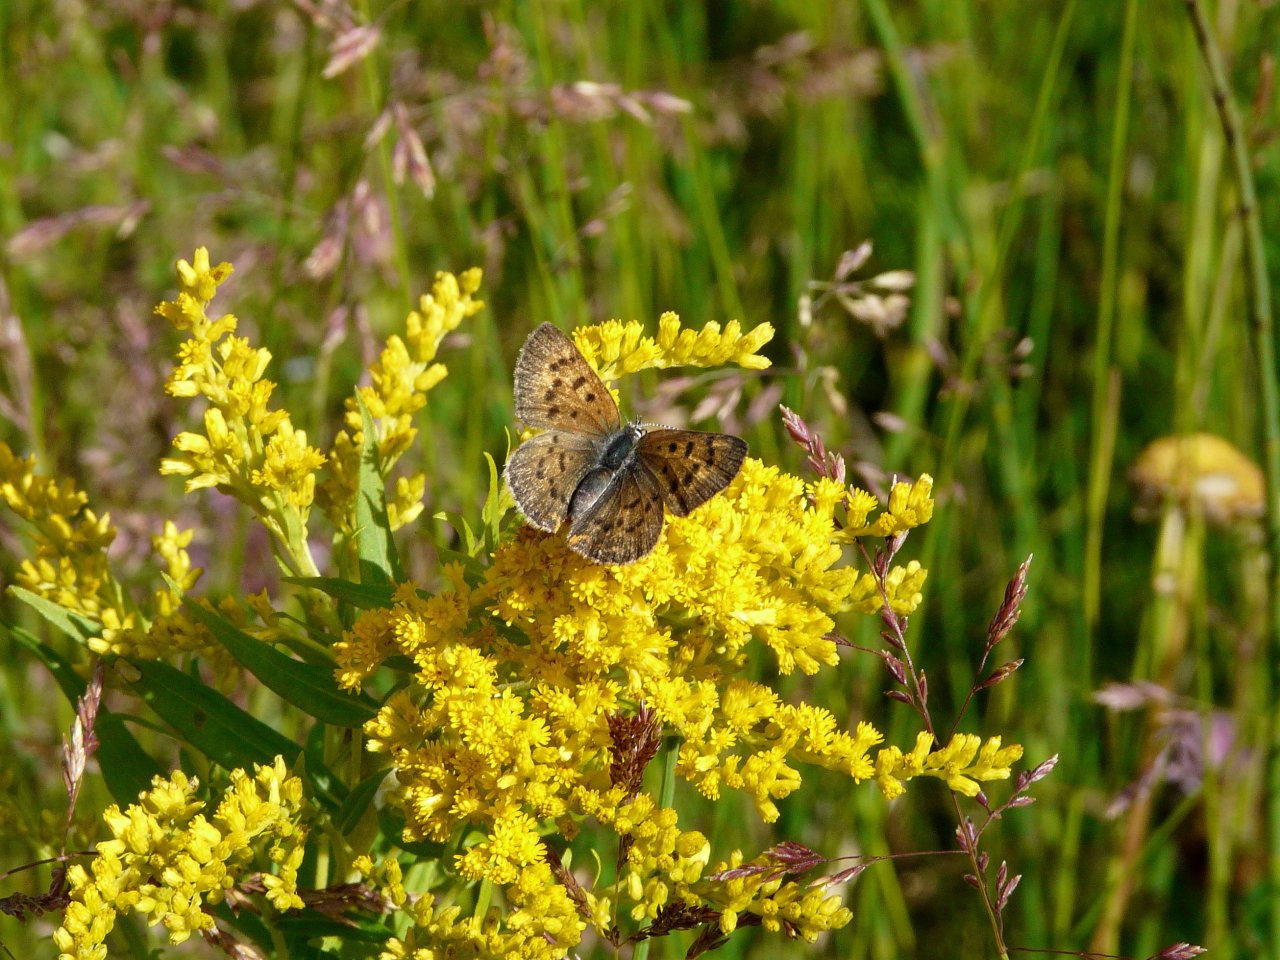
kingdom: Animalia
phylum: Arthropoda
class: Insecta
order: Lepidoptera
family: Lycaenidae
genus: Epidemia
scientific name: Epidemia dorcas
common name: Dorcas Copper
